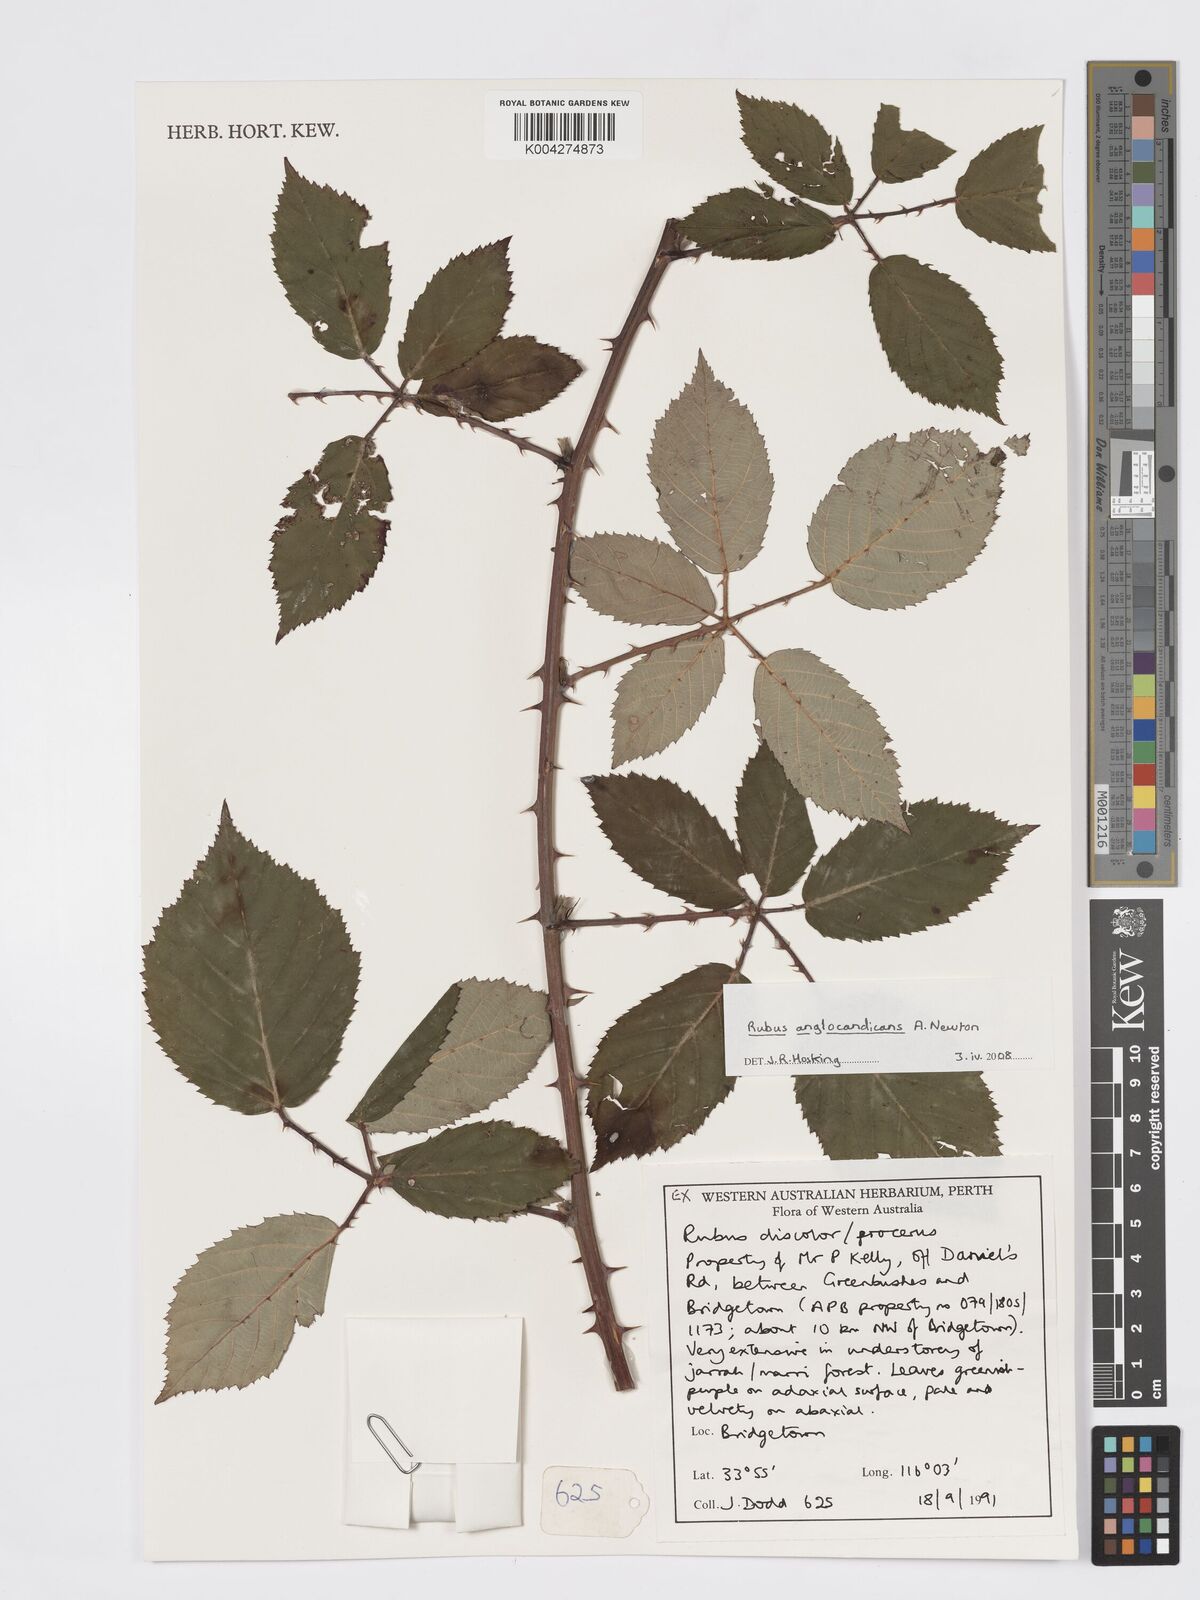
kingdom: Plantae
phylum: Tracheophyta
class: Magnoliopsida
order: Rosales
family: Rosaceae
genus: Rubus
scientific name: Rubus anglocandicans
